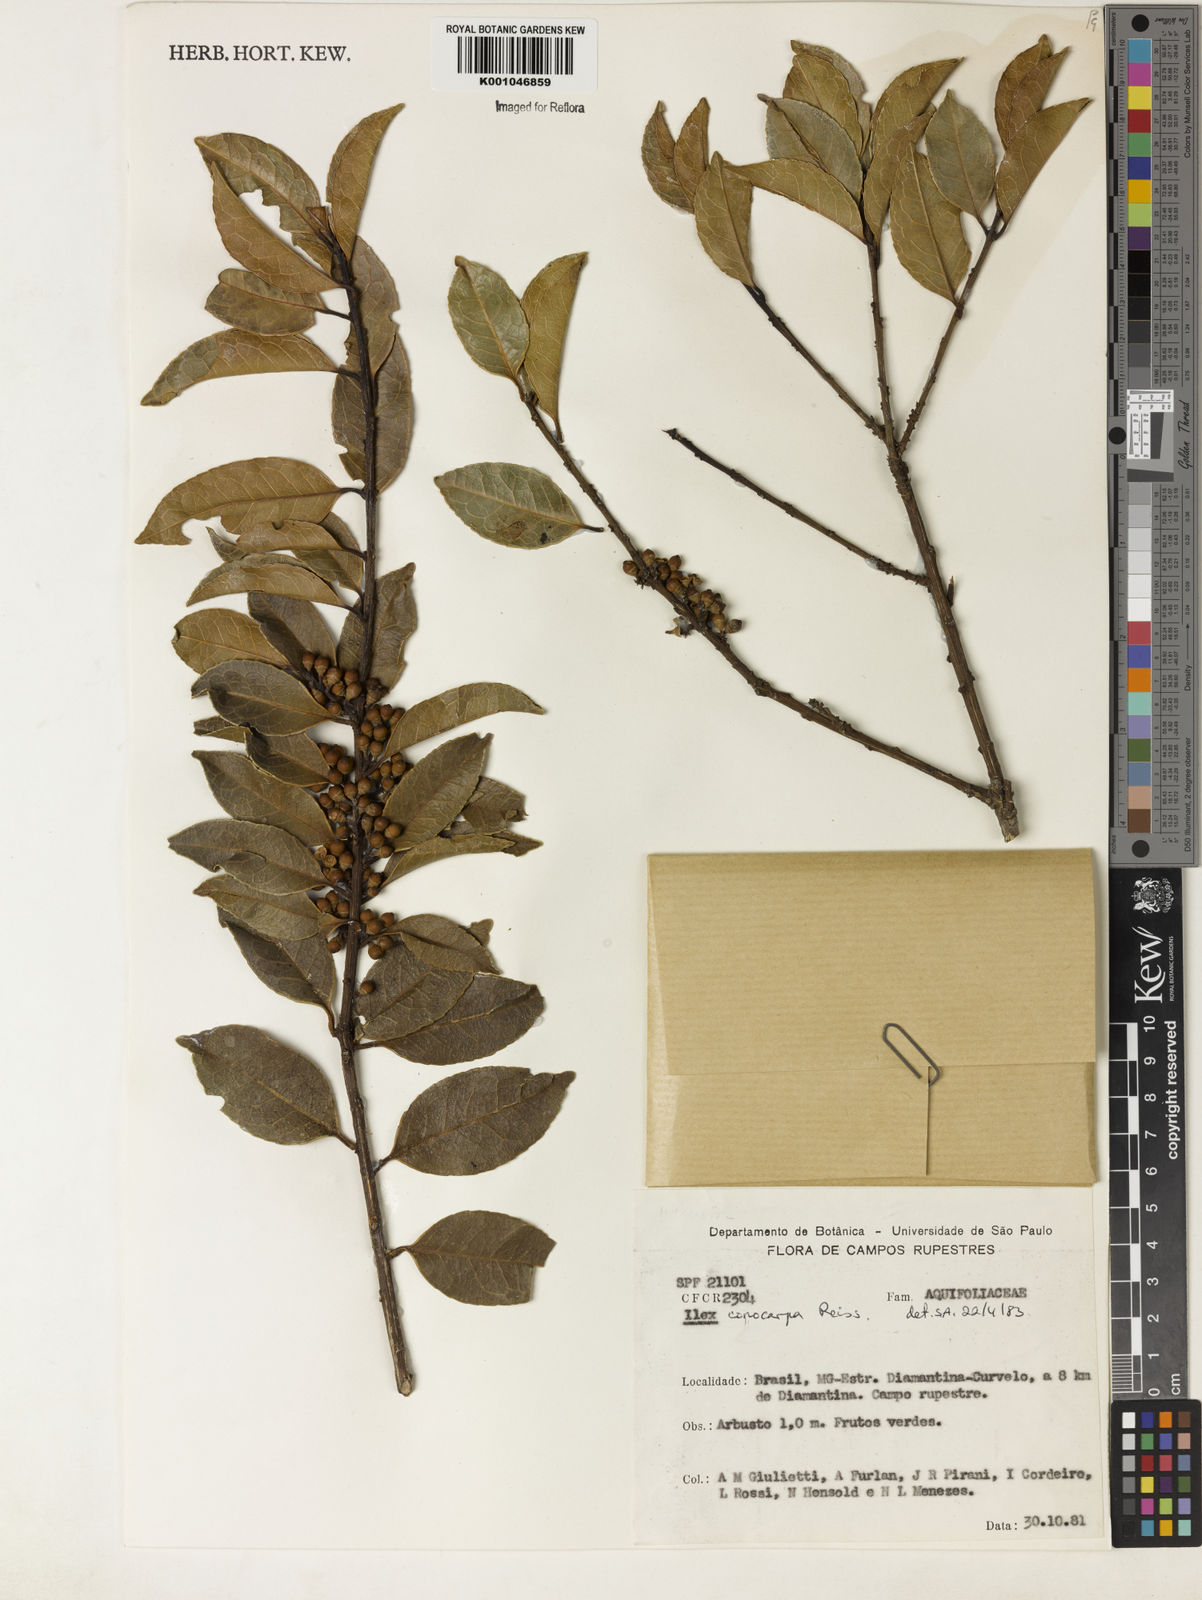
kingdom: Plantae
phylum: Tracheophyta
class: Magnoliopsida
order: Aquifoliales
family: Aquifoliaceae
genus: Ilex
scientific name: Ilex conocarpa
